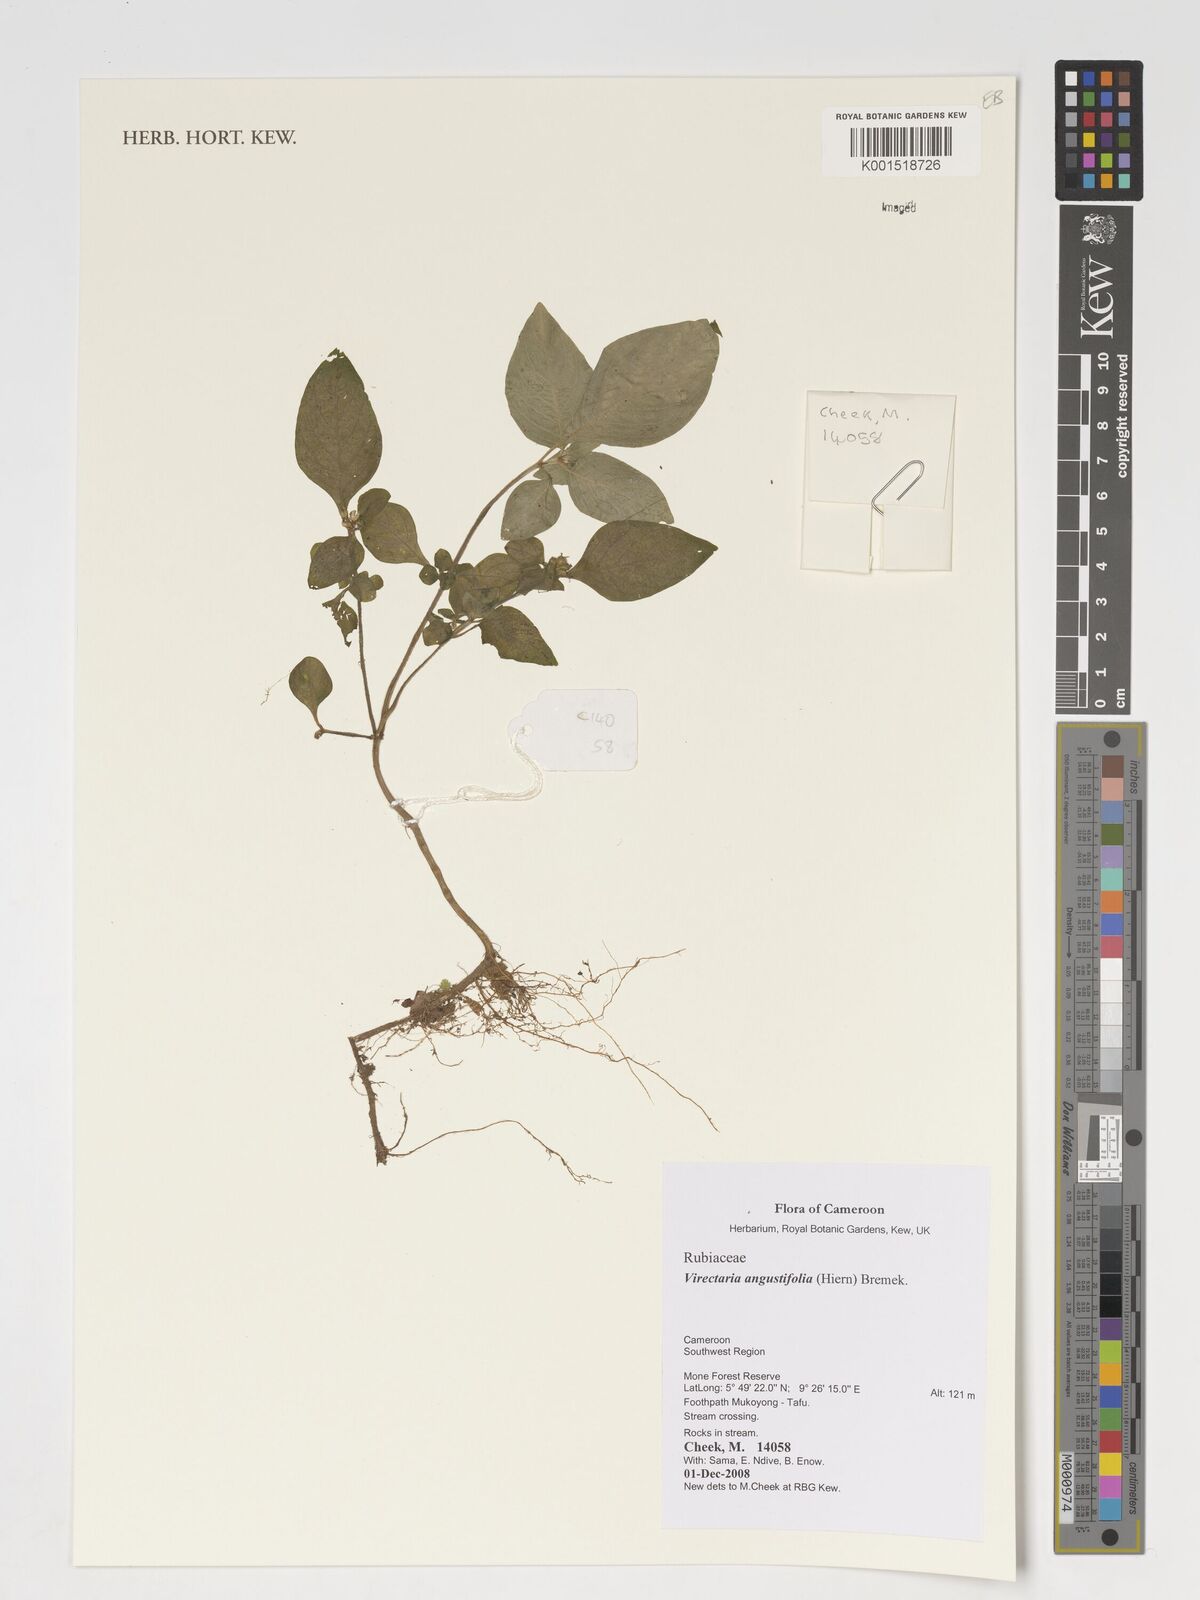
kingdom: Plantae
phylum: Tracheophyta
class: Magnoliopsida
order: Gentianales
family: Rubiaceae
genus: Virectaria
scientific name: Virectaria angustifolia
